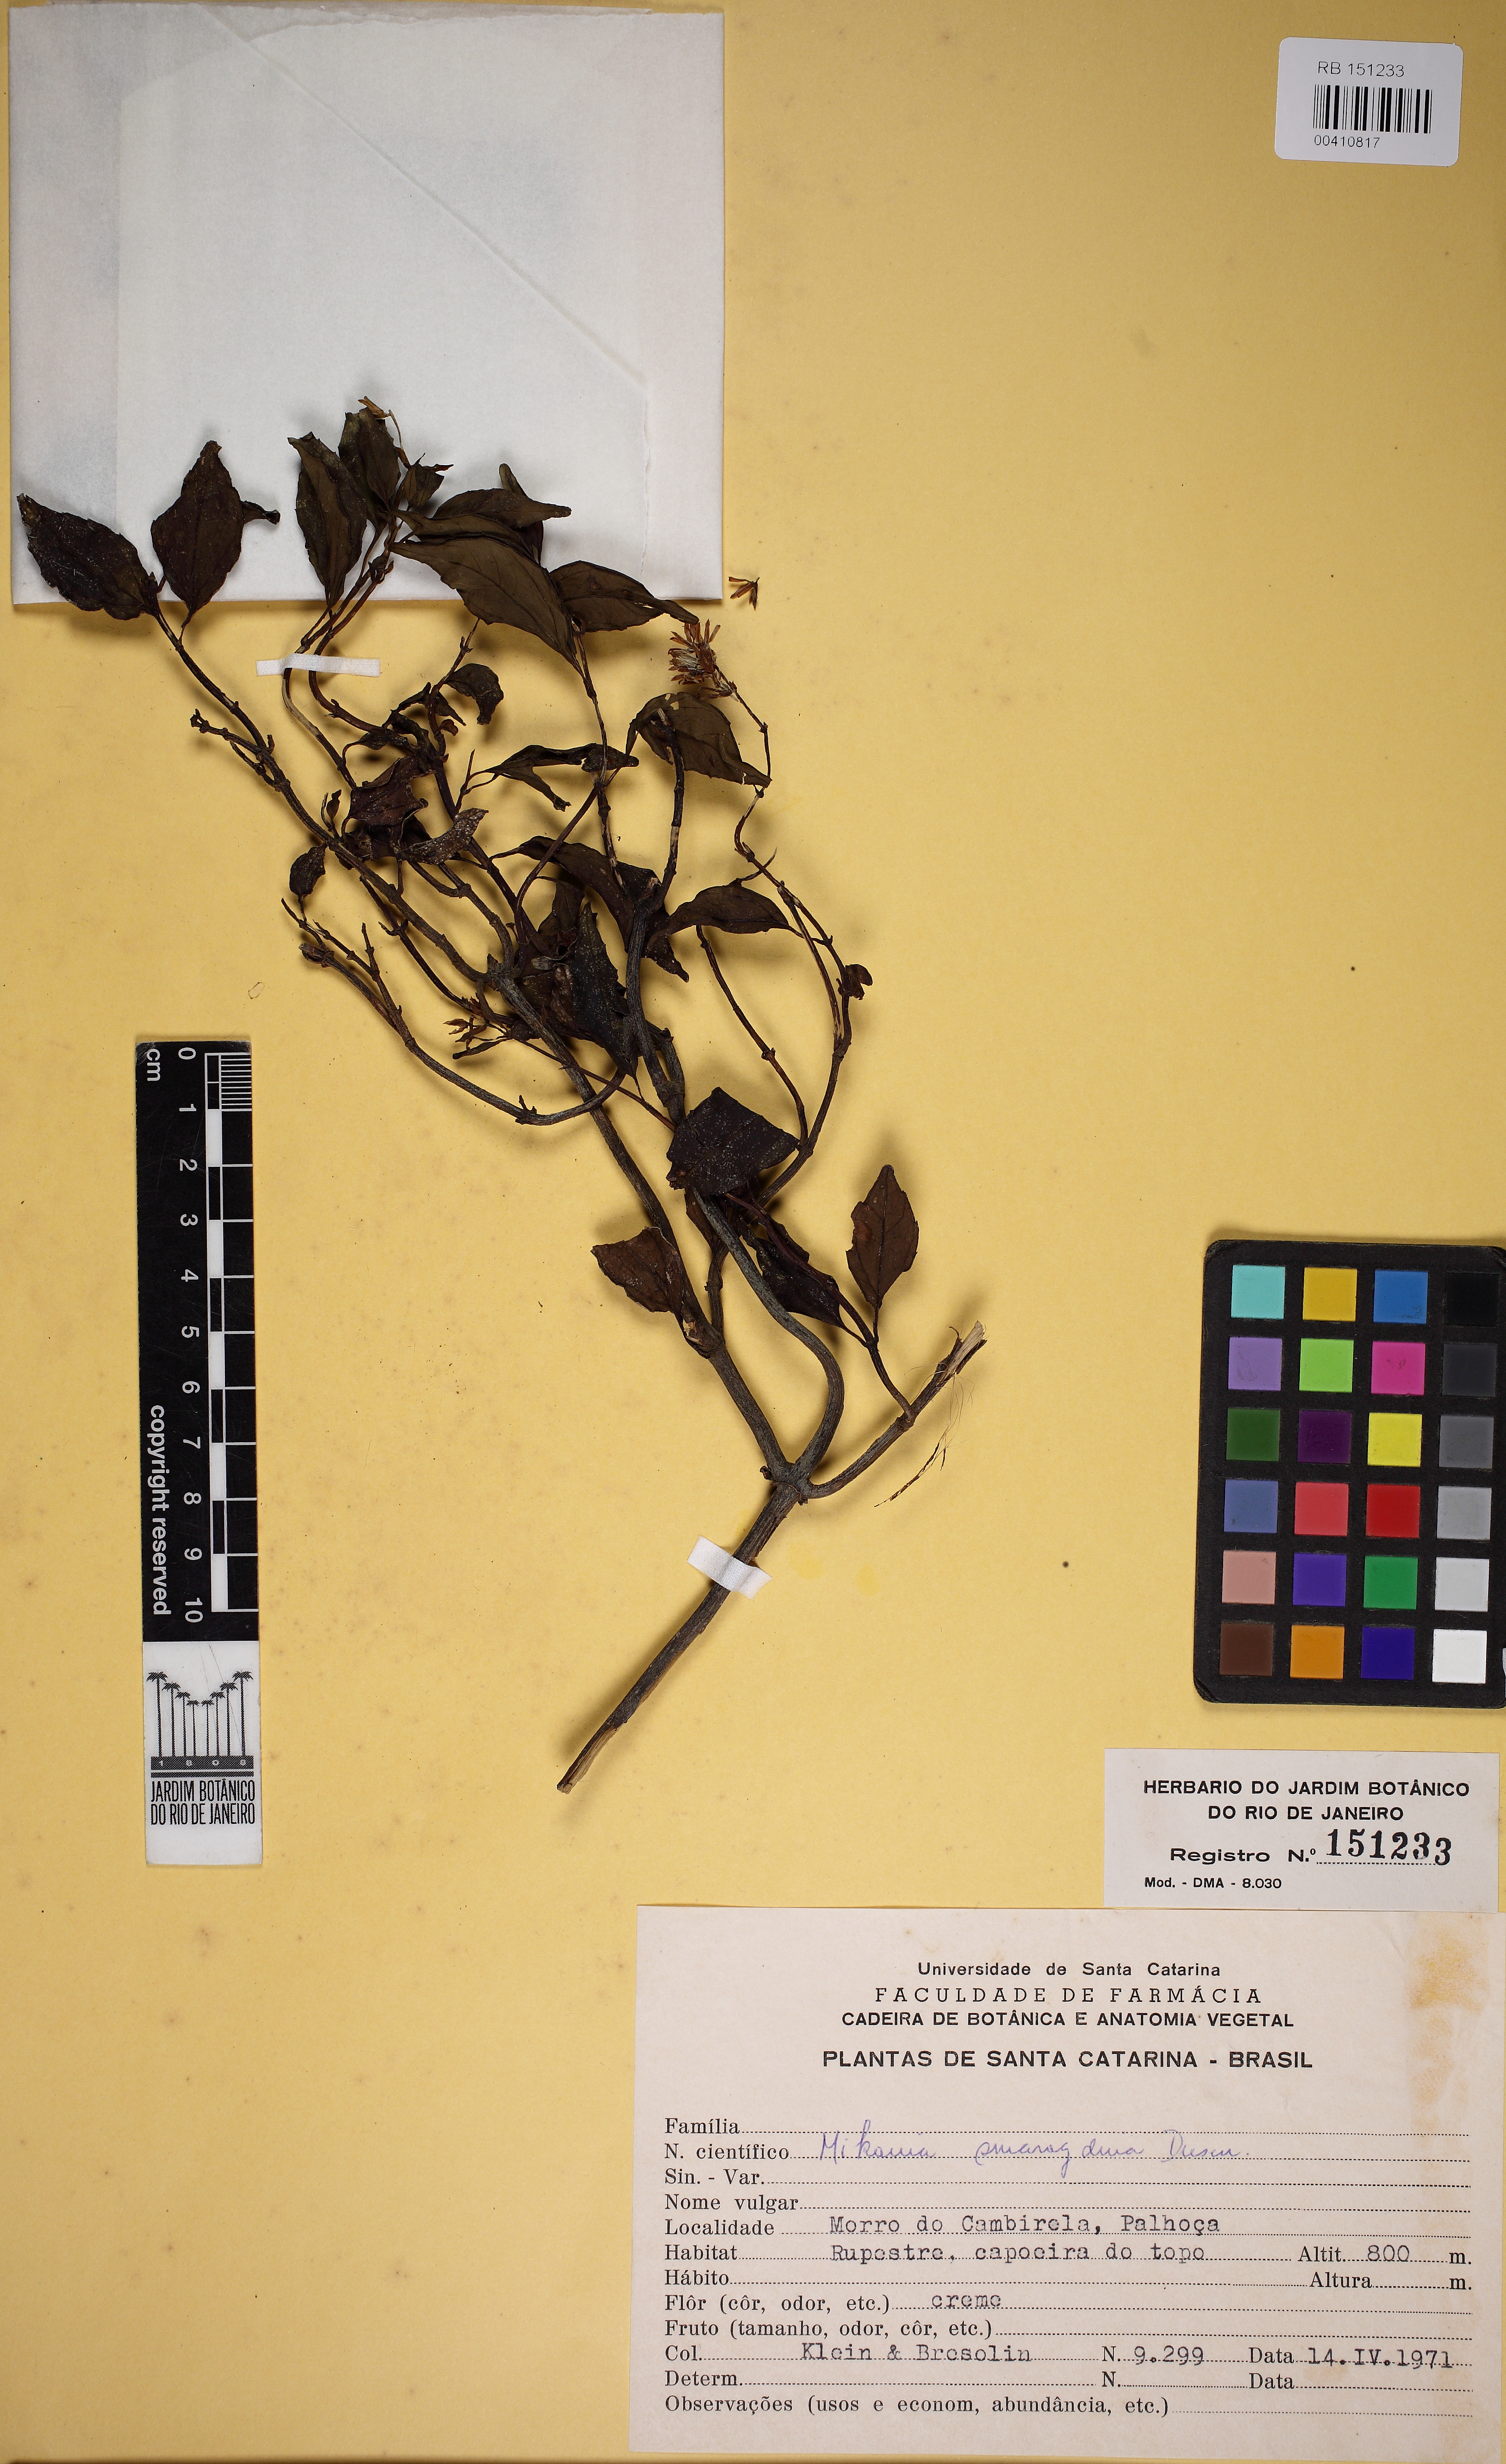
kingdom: Plantae
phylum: Tracheophyta
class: Magnoliopsida
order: Asterales
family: Asteraceae
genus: Mikania
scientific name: Mikania smaragdina
